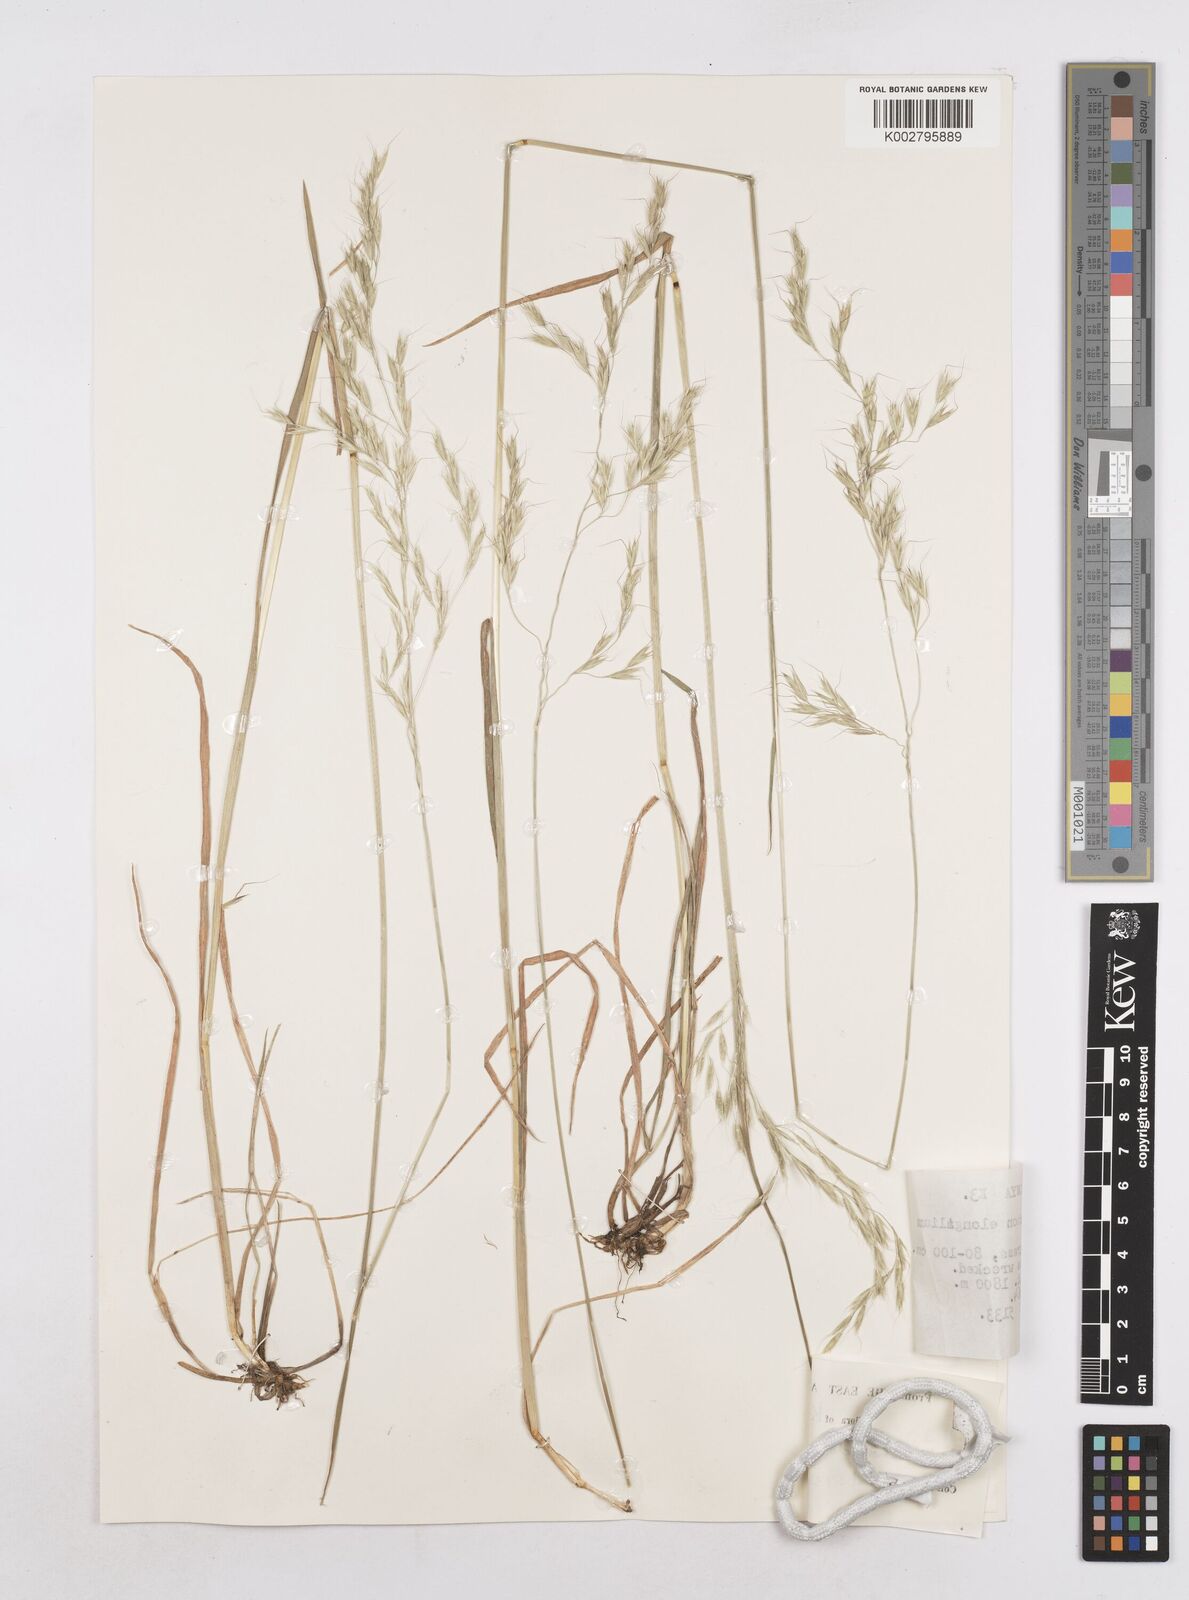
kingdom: Plantae
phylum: Tracheophyta
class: Liliopsida
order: Poales
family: Poaceae
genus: Trisetopsis
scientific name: Trisetopsis elongata
